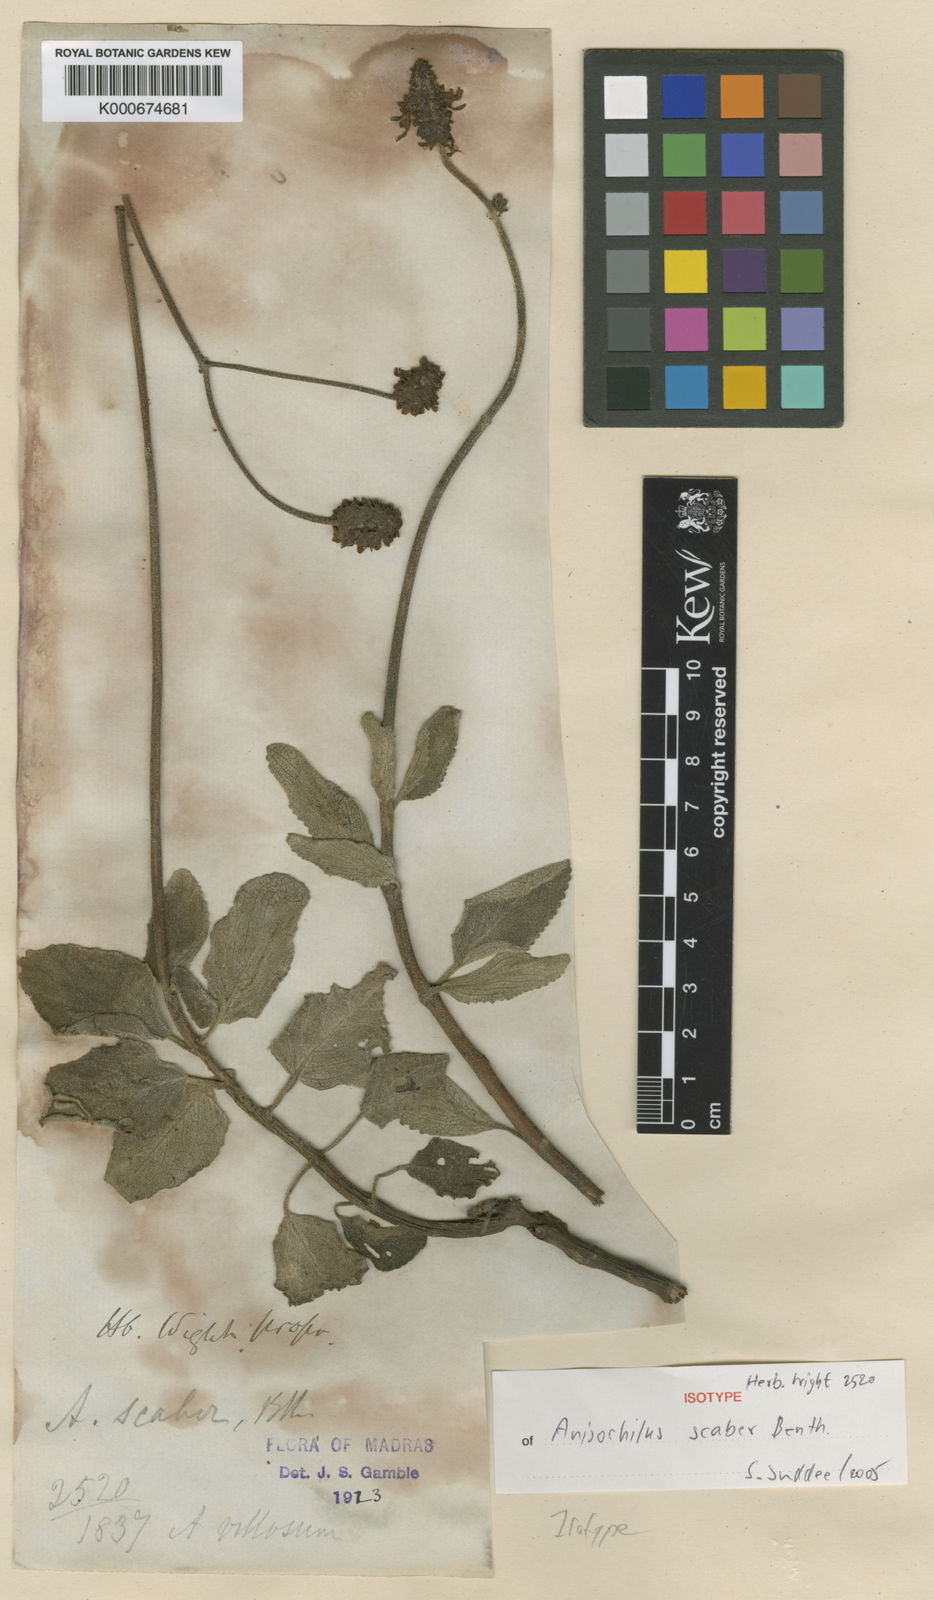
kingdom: Plantae
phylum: Tracheophyta
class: Magnoliopsida
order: Lamiales
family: Lamiaceae
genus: Coleus
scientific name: Coleus scaber
